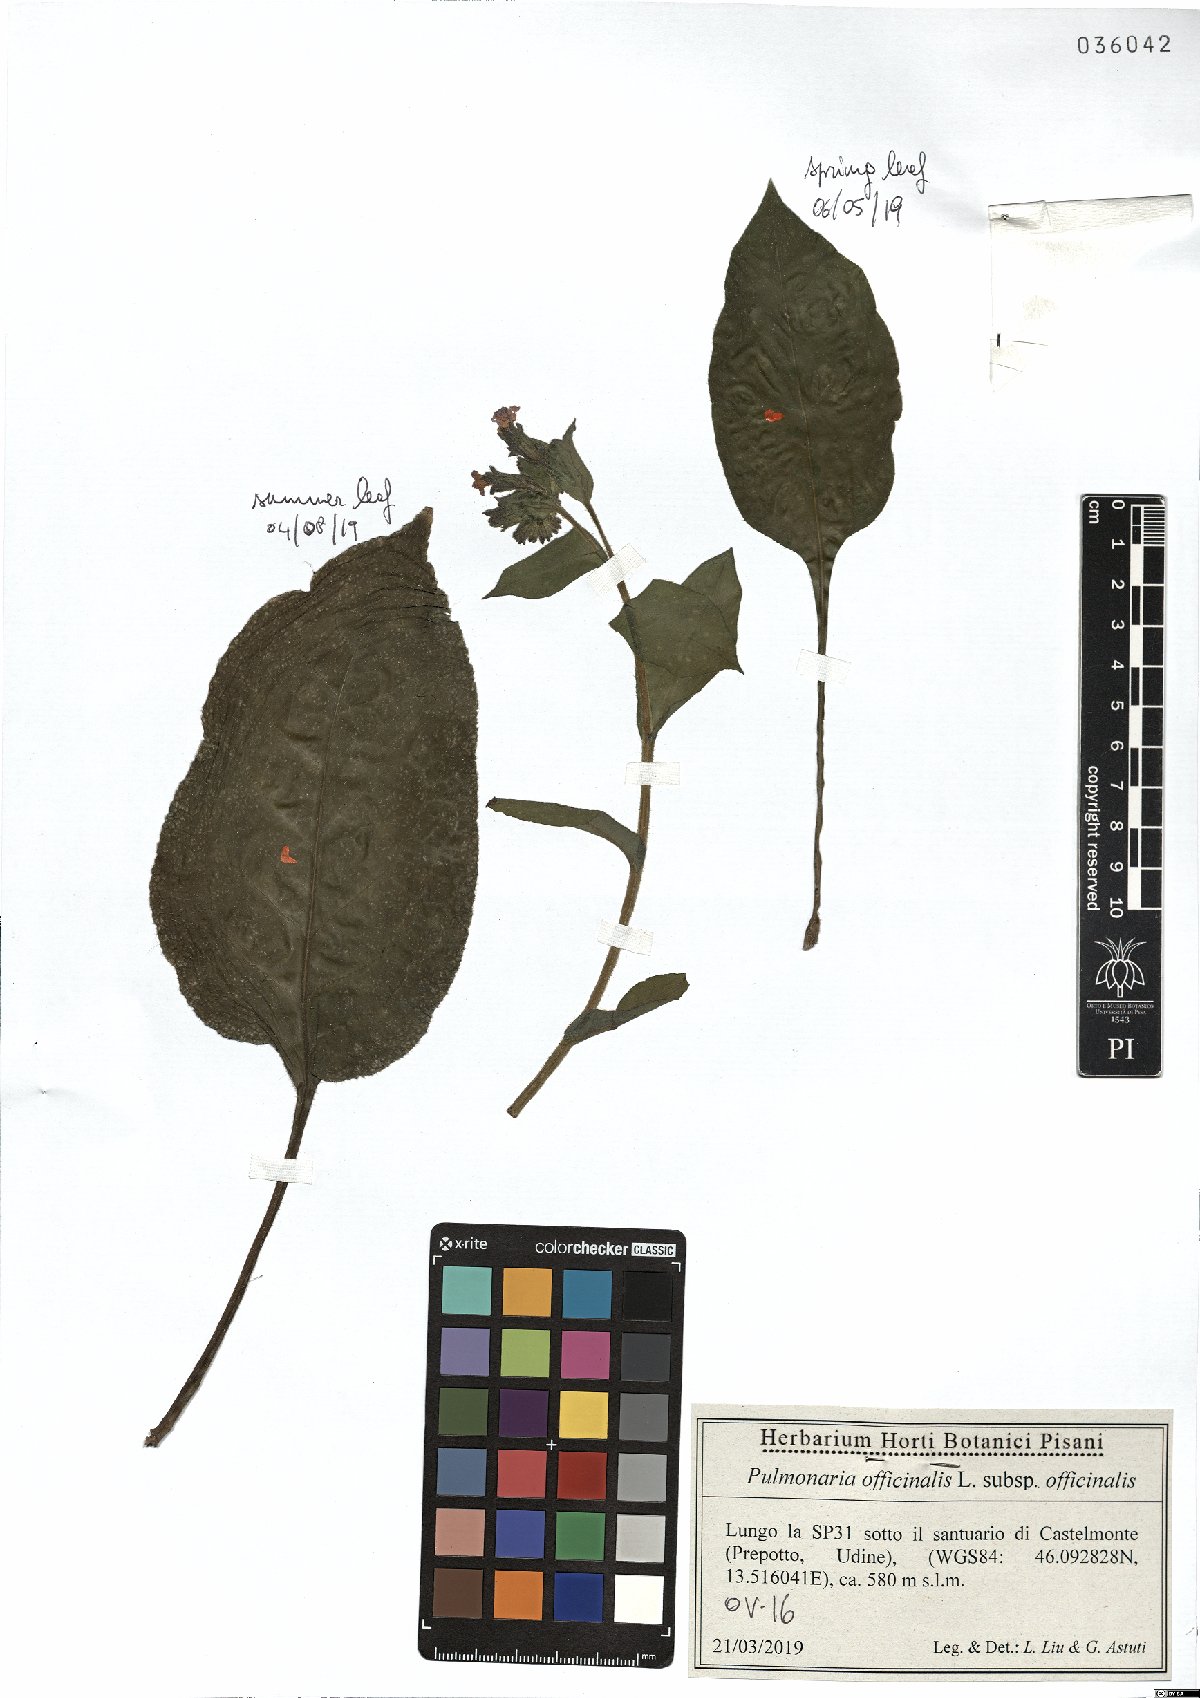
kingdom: Plantae
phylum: Tracheophyta
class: Magnoliopsida
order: Boraginales
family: Boraginaceae
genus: Pulmonaria
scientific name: Pulmonaria officinalis
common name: Lungwort
